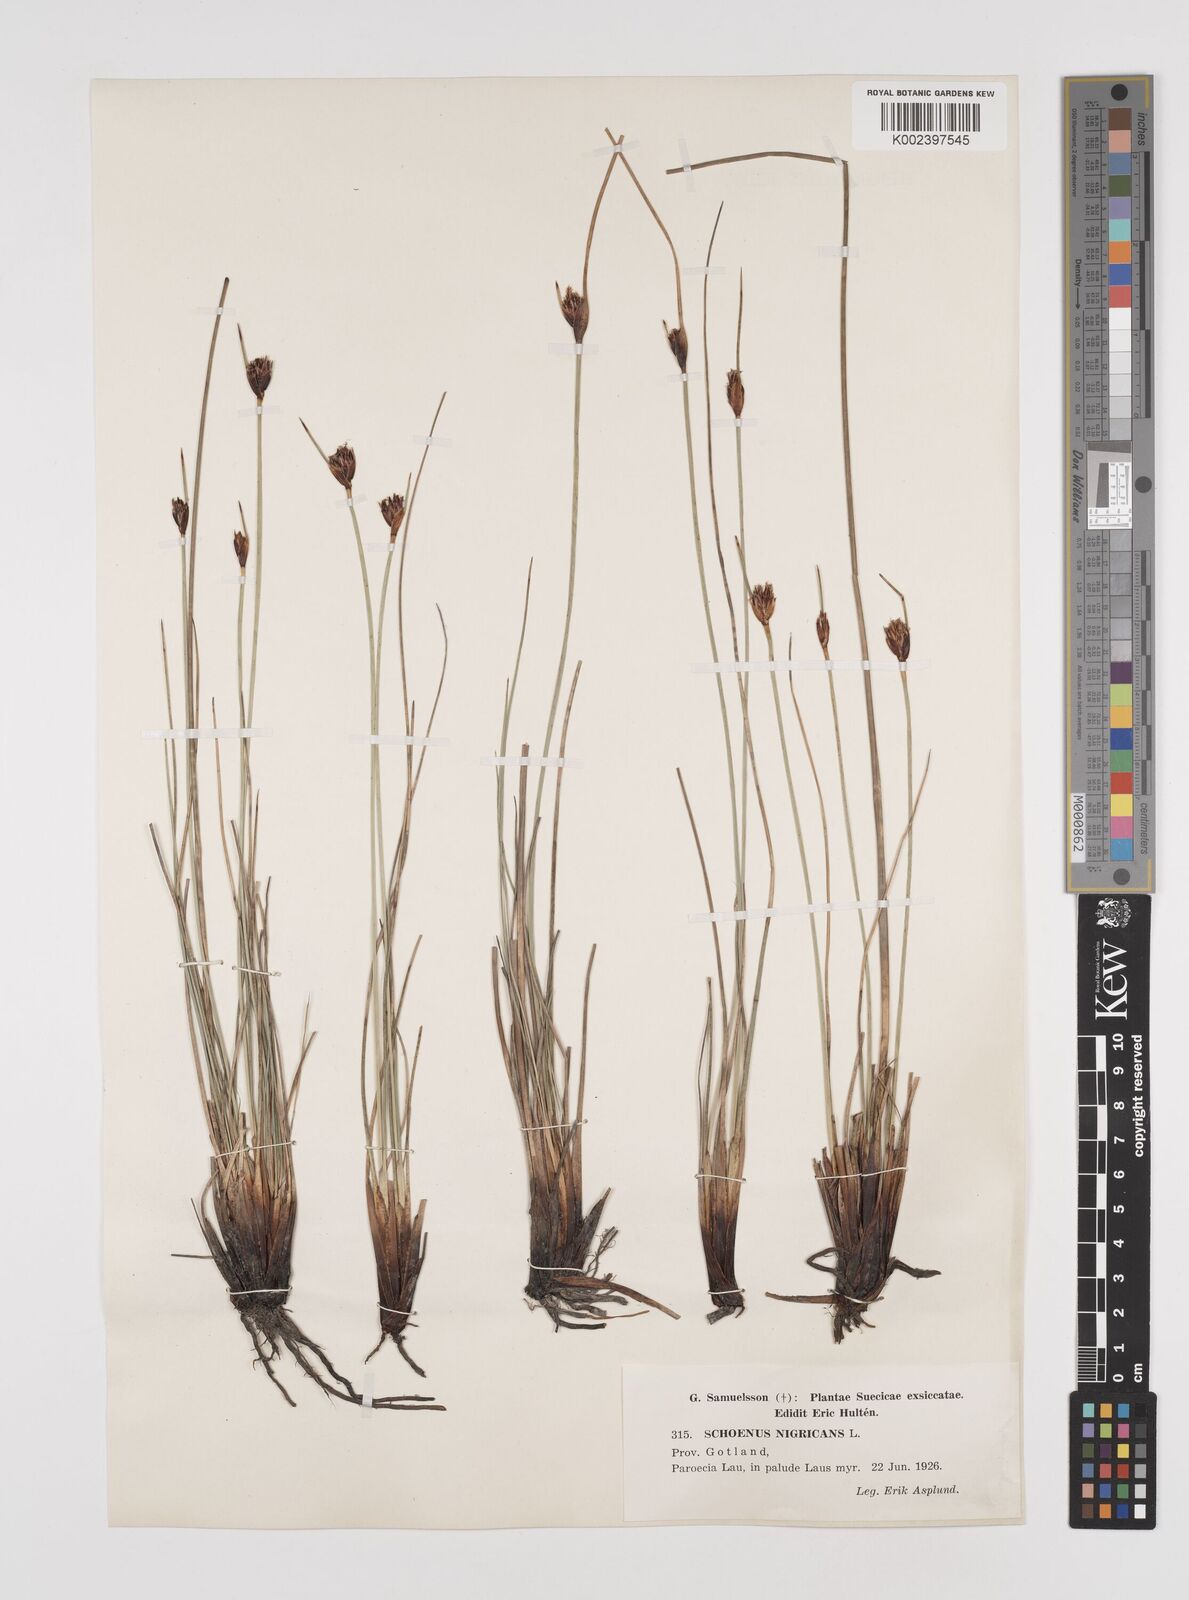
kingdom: Plantae
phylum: Tracheophyta
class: Liliopsida
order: Poales
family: Cyperaceae
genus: Schoenus
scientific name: Schoenus nigricans
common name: Black bog-rush
